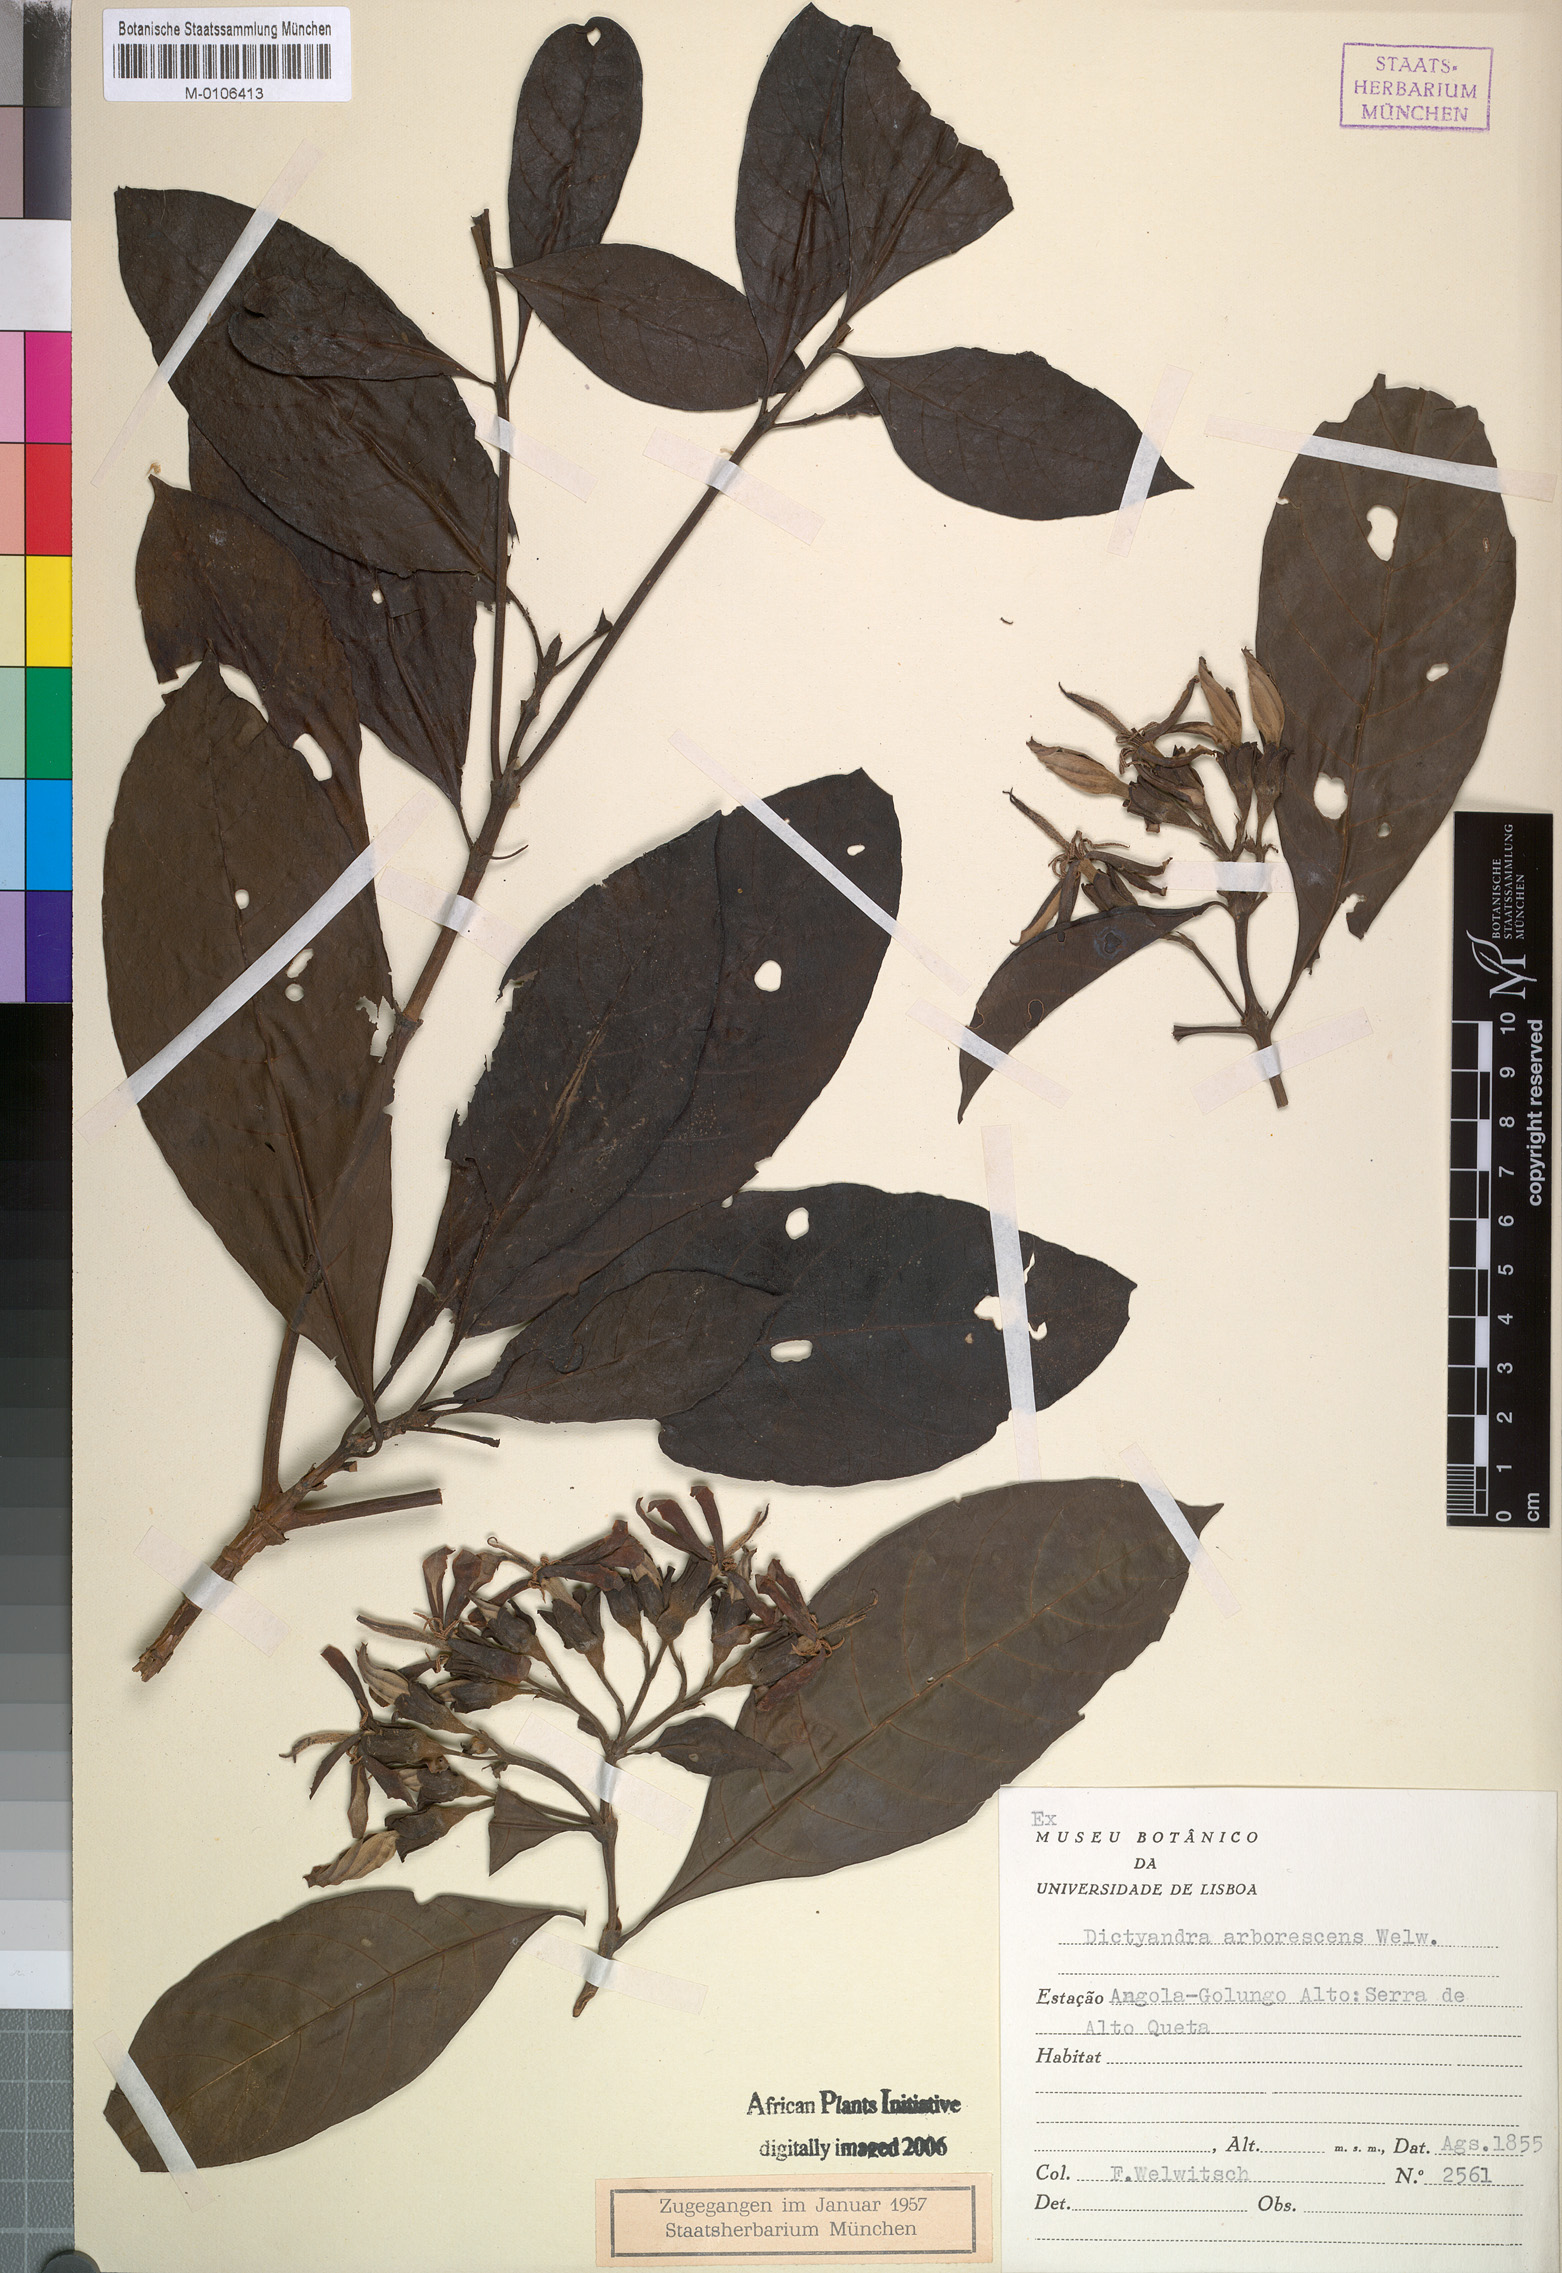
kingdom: Plantae
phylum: Tracheophyta
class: Magnoliopsida
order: Gentianales
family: Rubiaceae
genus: Leptactina
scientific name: Leptactina arborescens
